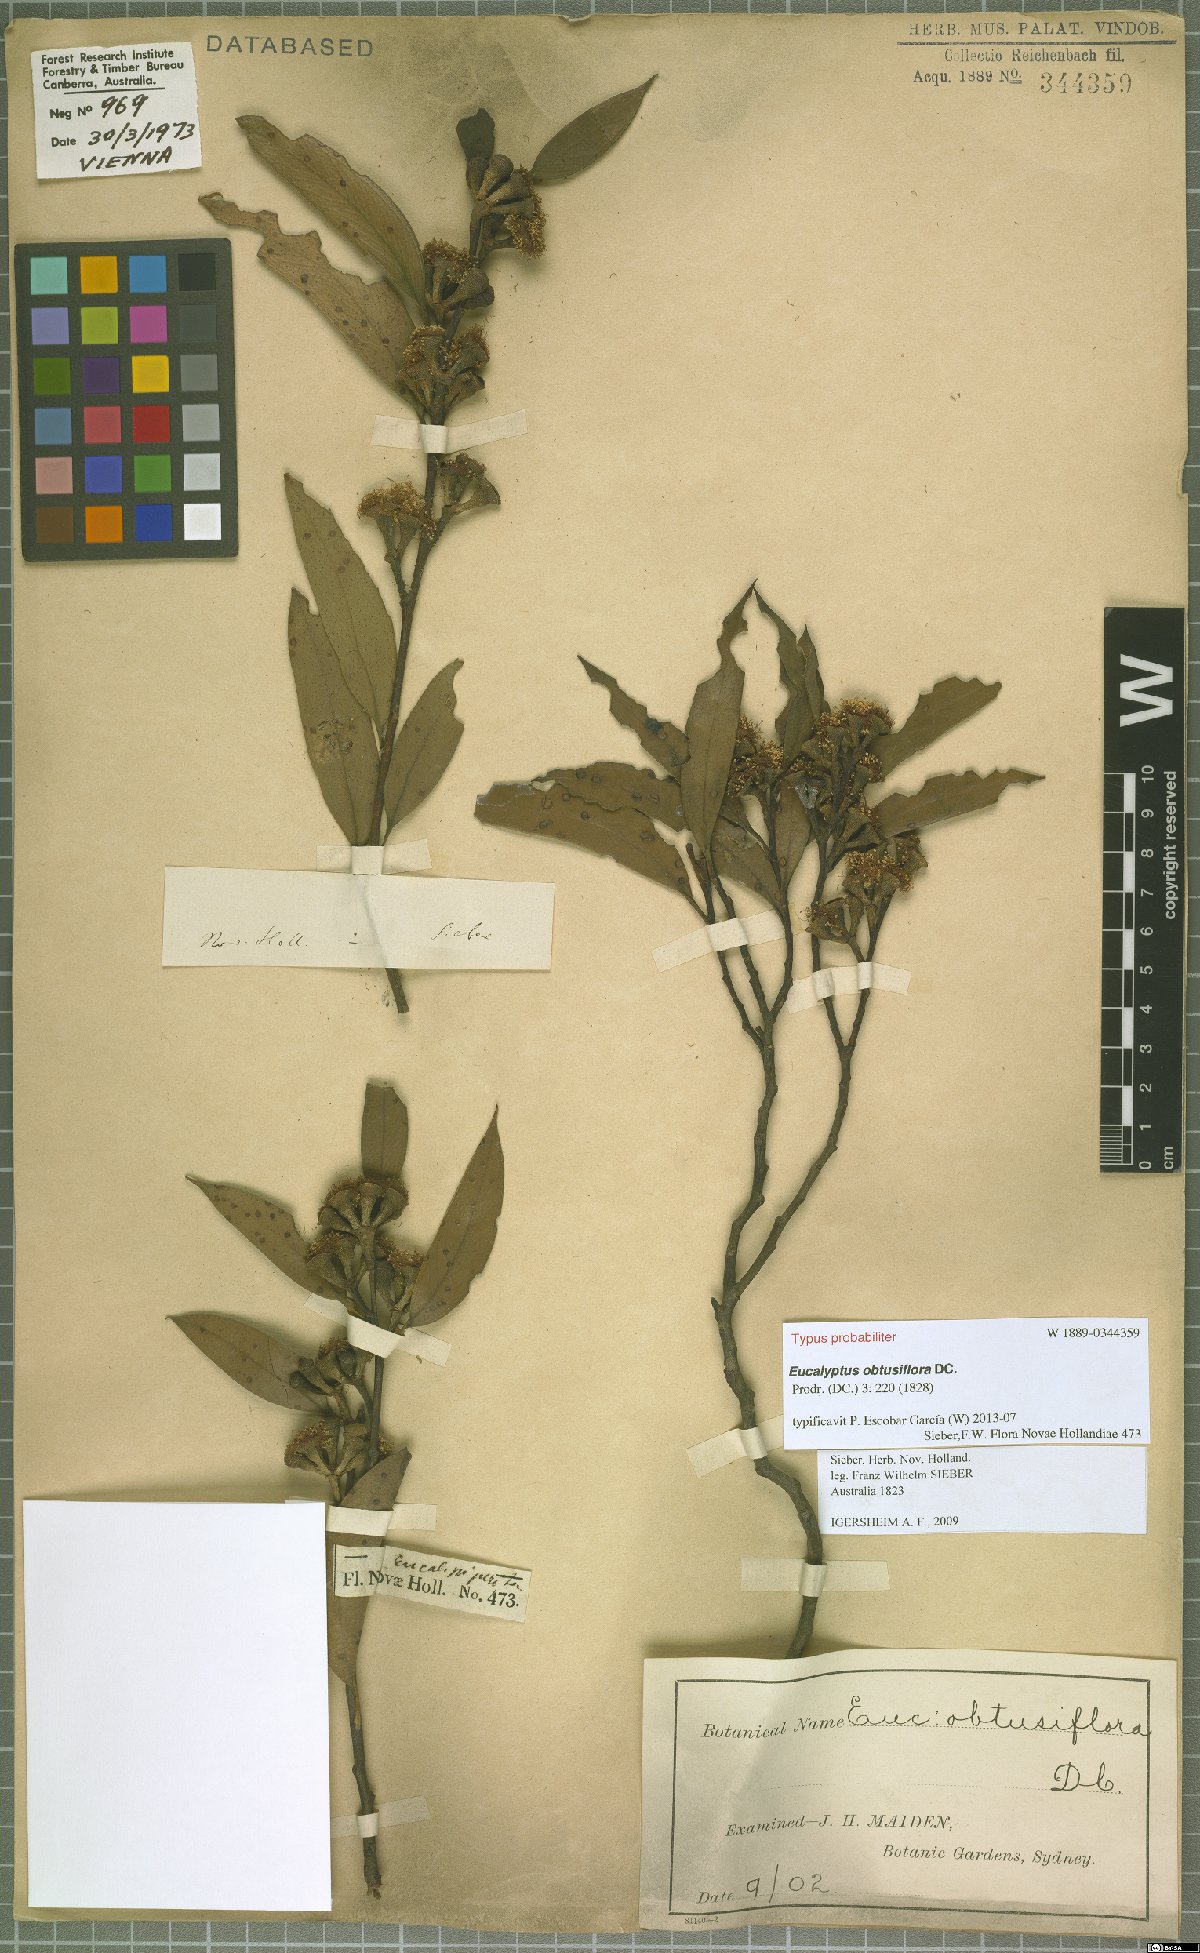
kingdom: Plantae
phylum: Tracheophyta
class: Magnoliopsida
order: Myrtales
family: Myrtaceae
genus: Eucalyptus
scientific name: Eucalyptus obtusiflora
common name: Dongara-mallee
